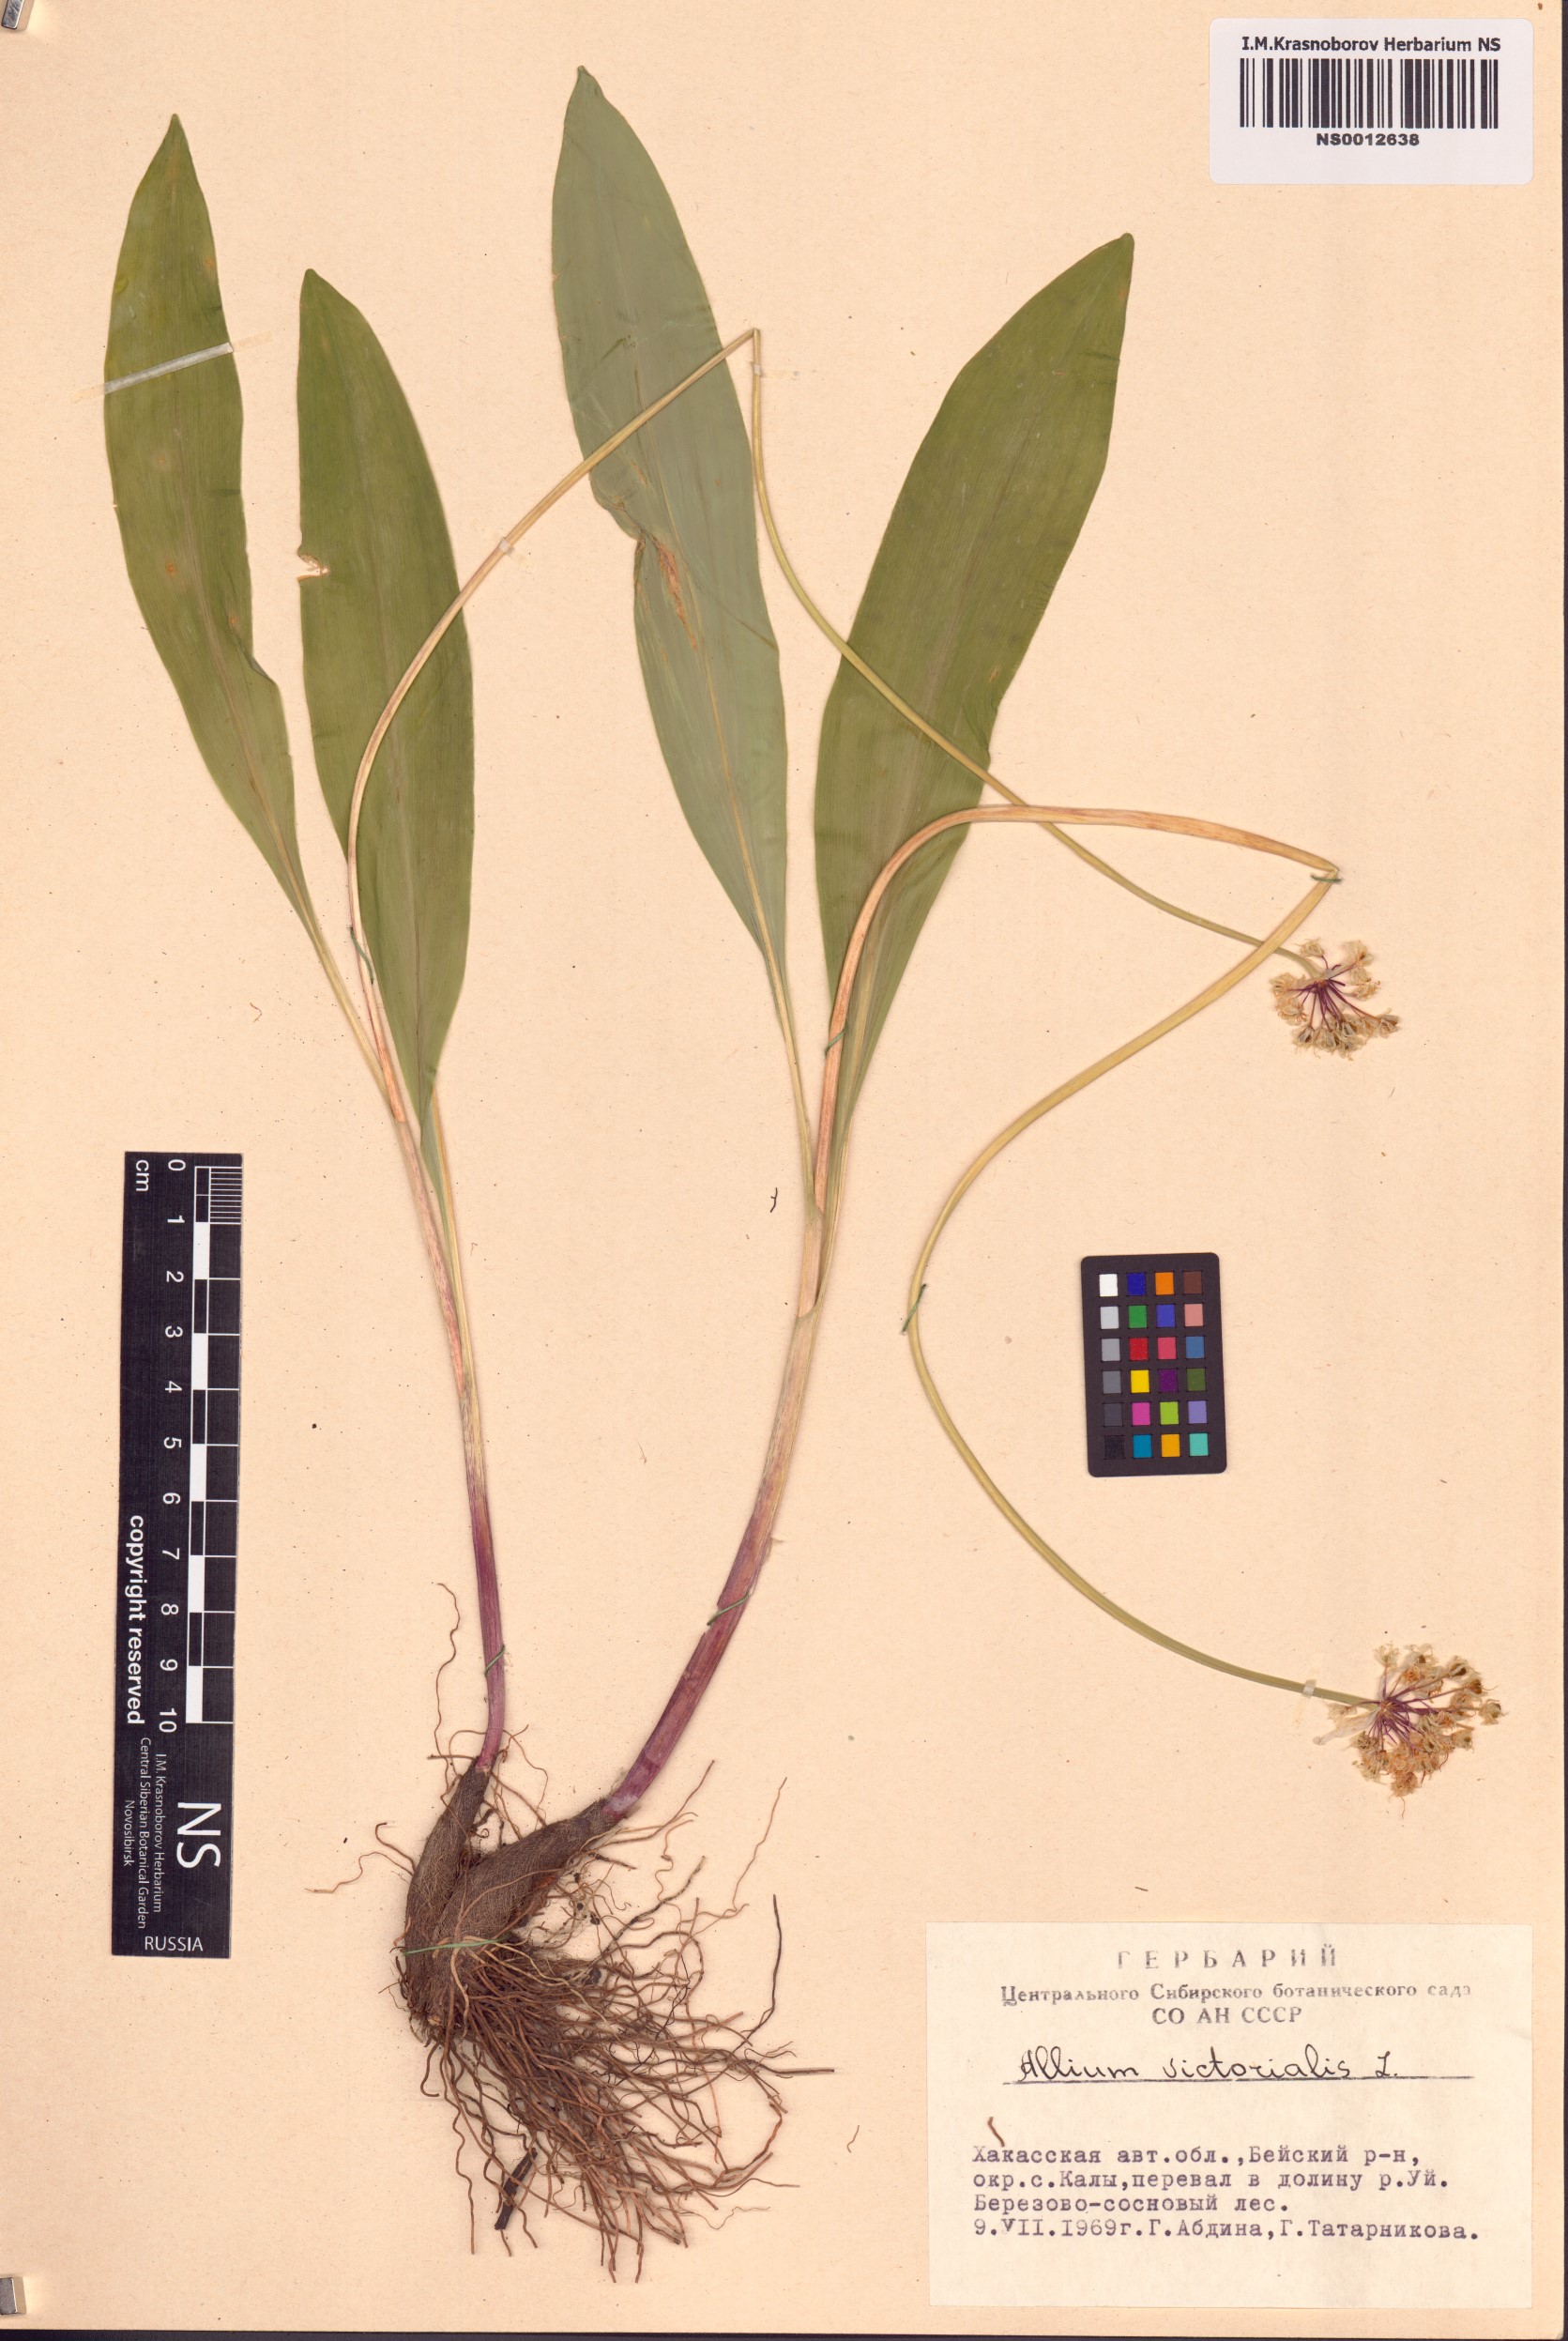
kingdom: Plantae
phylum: Tracheophyta
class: Liliopsida
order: Asparagales
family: Amaryllidaceae
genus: Allium
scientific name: Allium microdictyon
